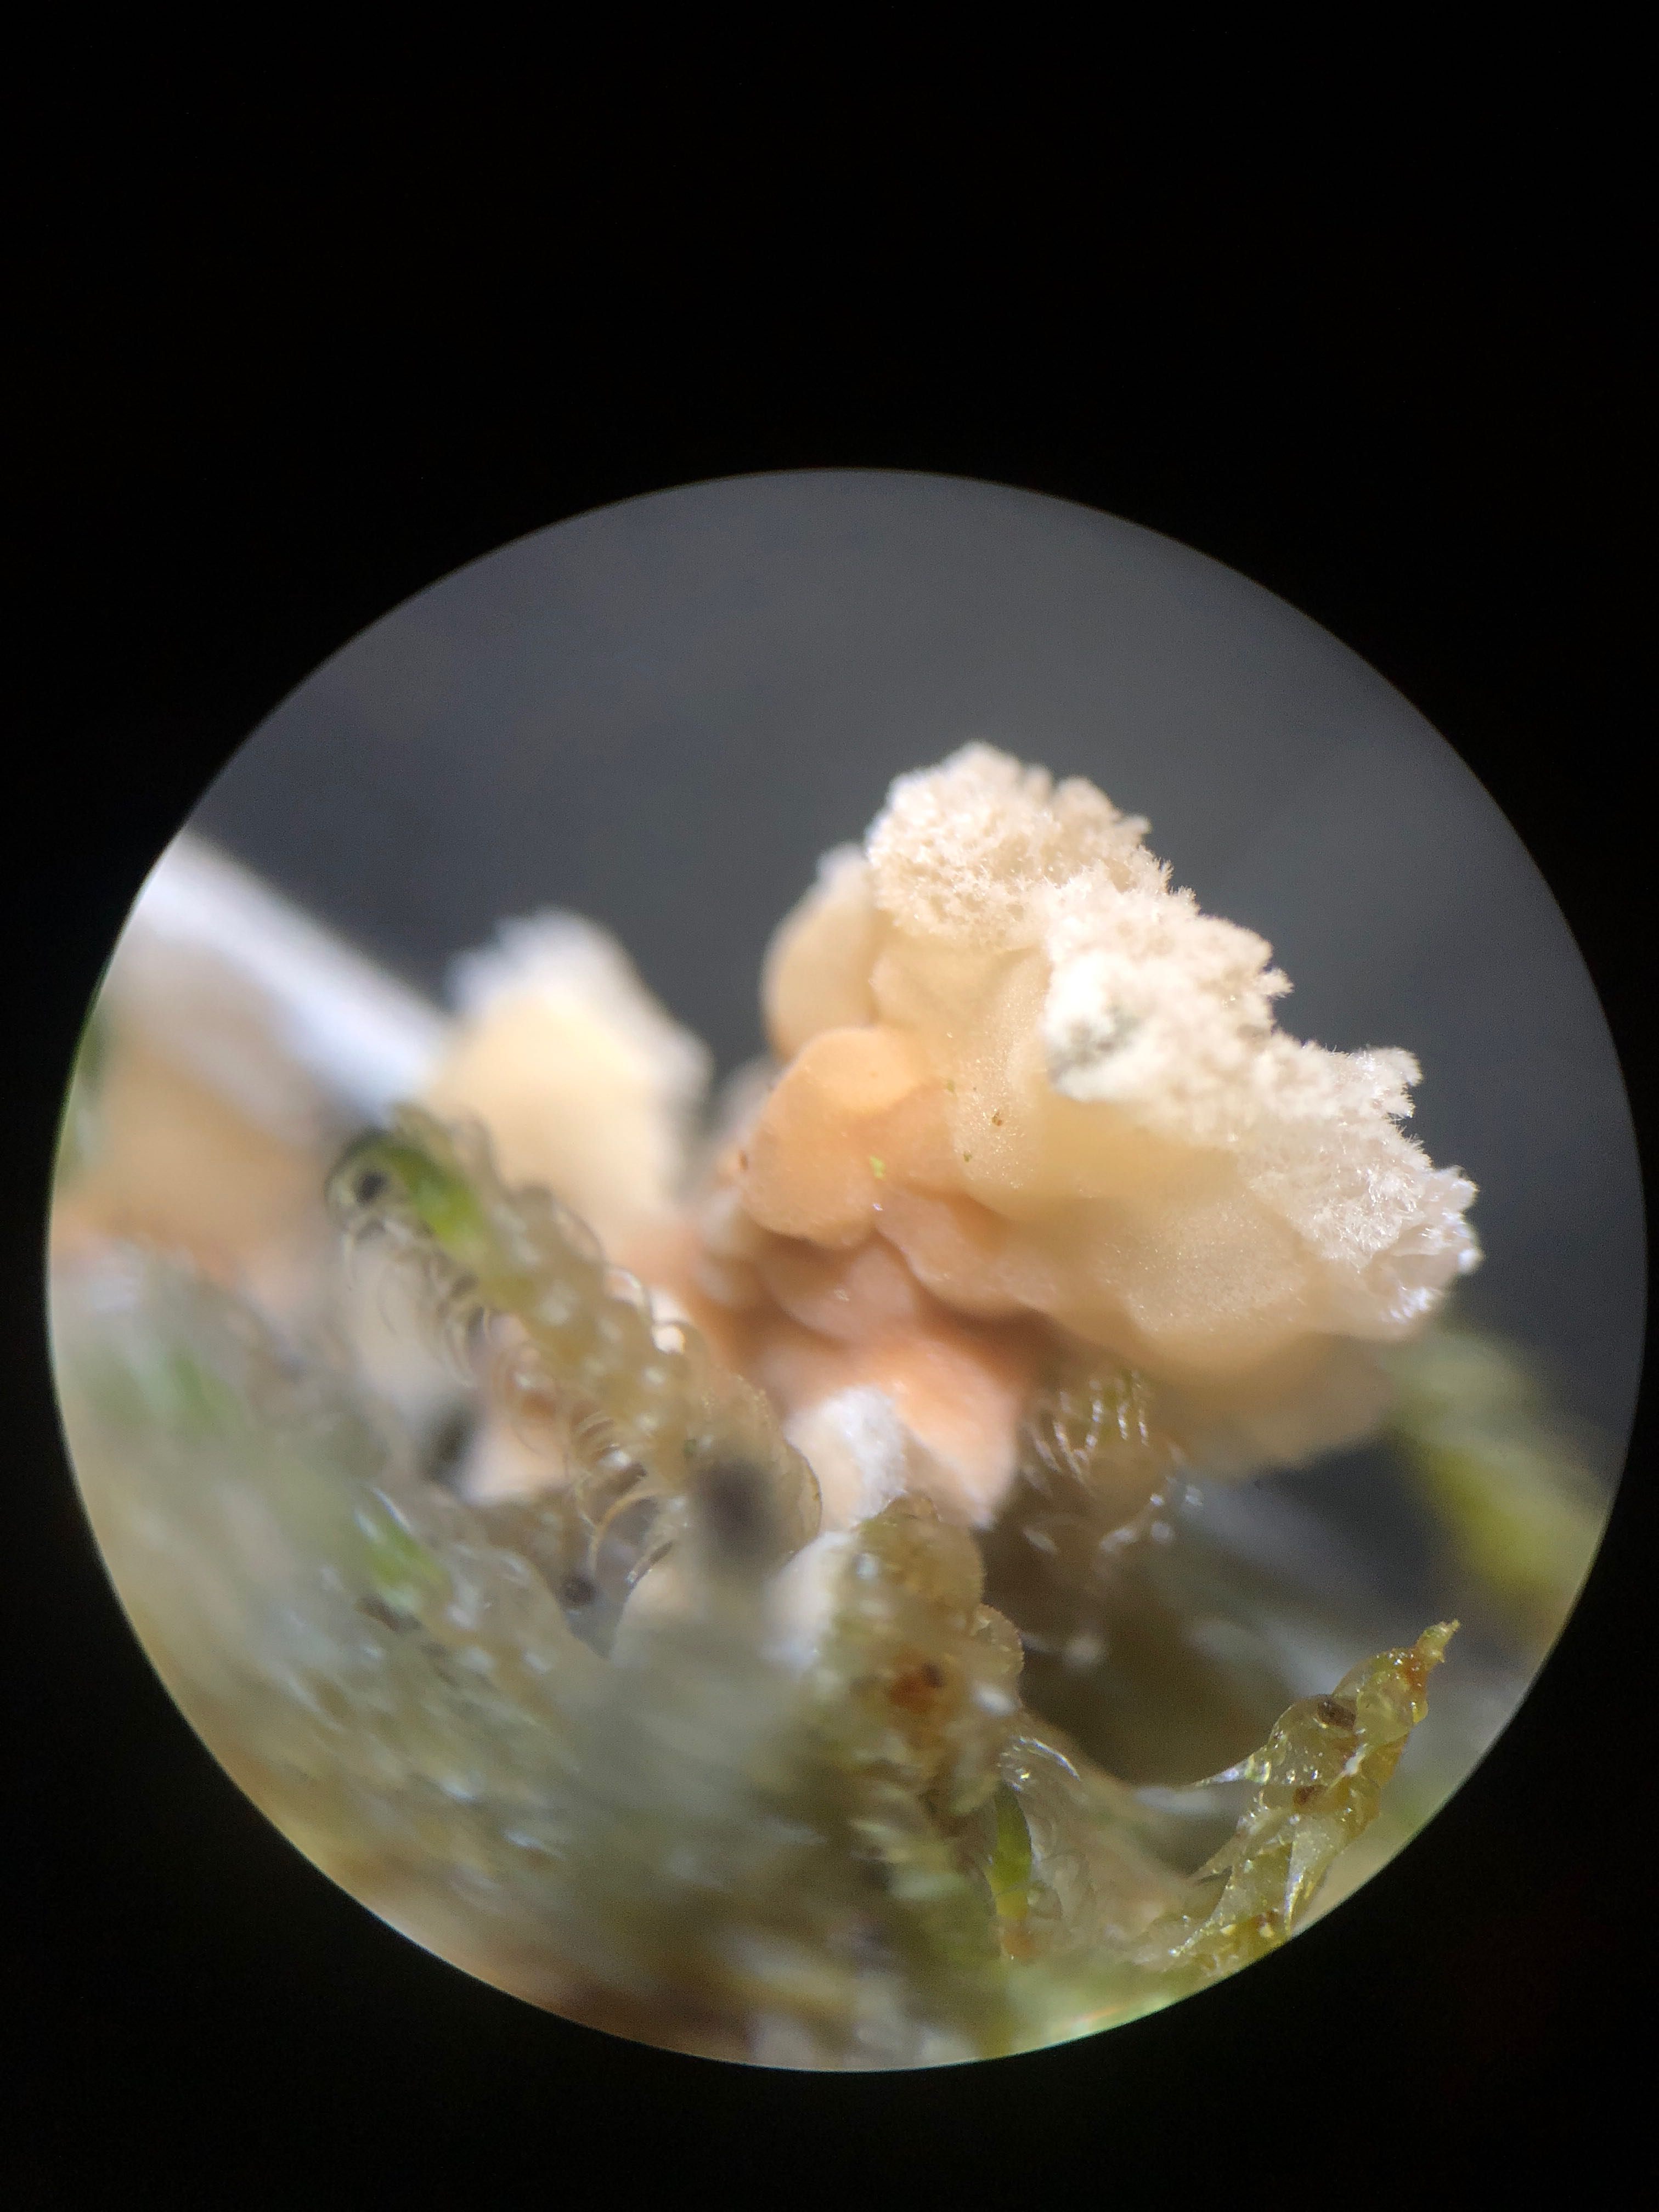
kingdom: Fungi
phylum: Basidiomycota
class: Agaricomycetes
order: Agaricales
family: Physalacriaceae
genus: Cylindrobasidium
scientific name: Cylindrobasidium evolvens
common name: sprækkehinde
